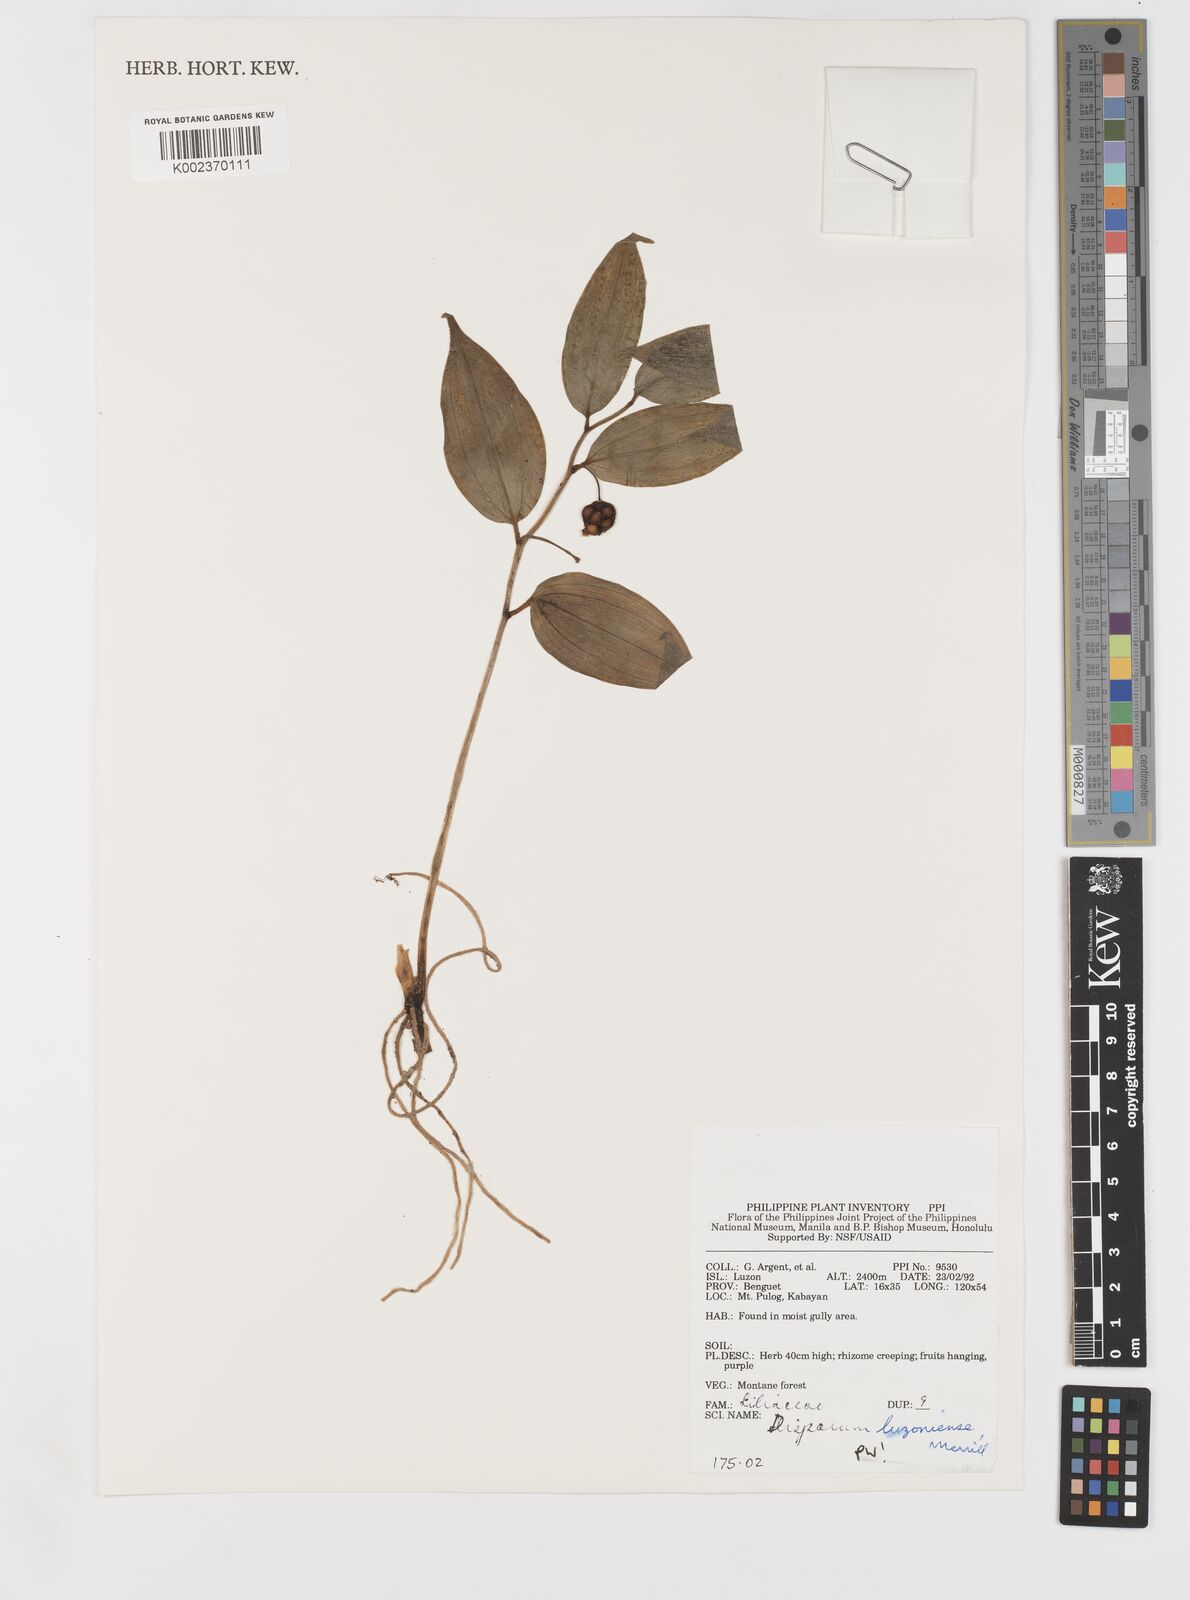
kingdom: Plantae
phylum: Tracheophyta
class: Liliopsida
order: Asparagales
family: Asparagaceae
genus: Disporopsis
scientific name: Disporopsis luzoniensis
